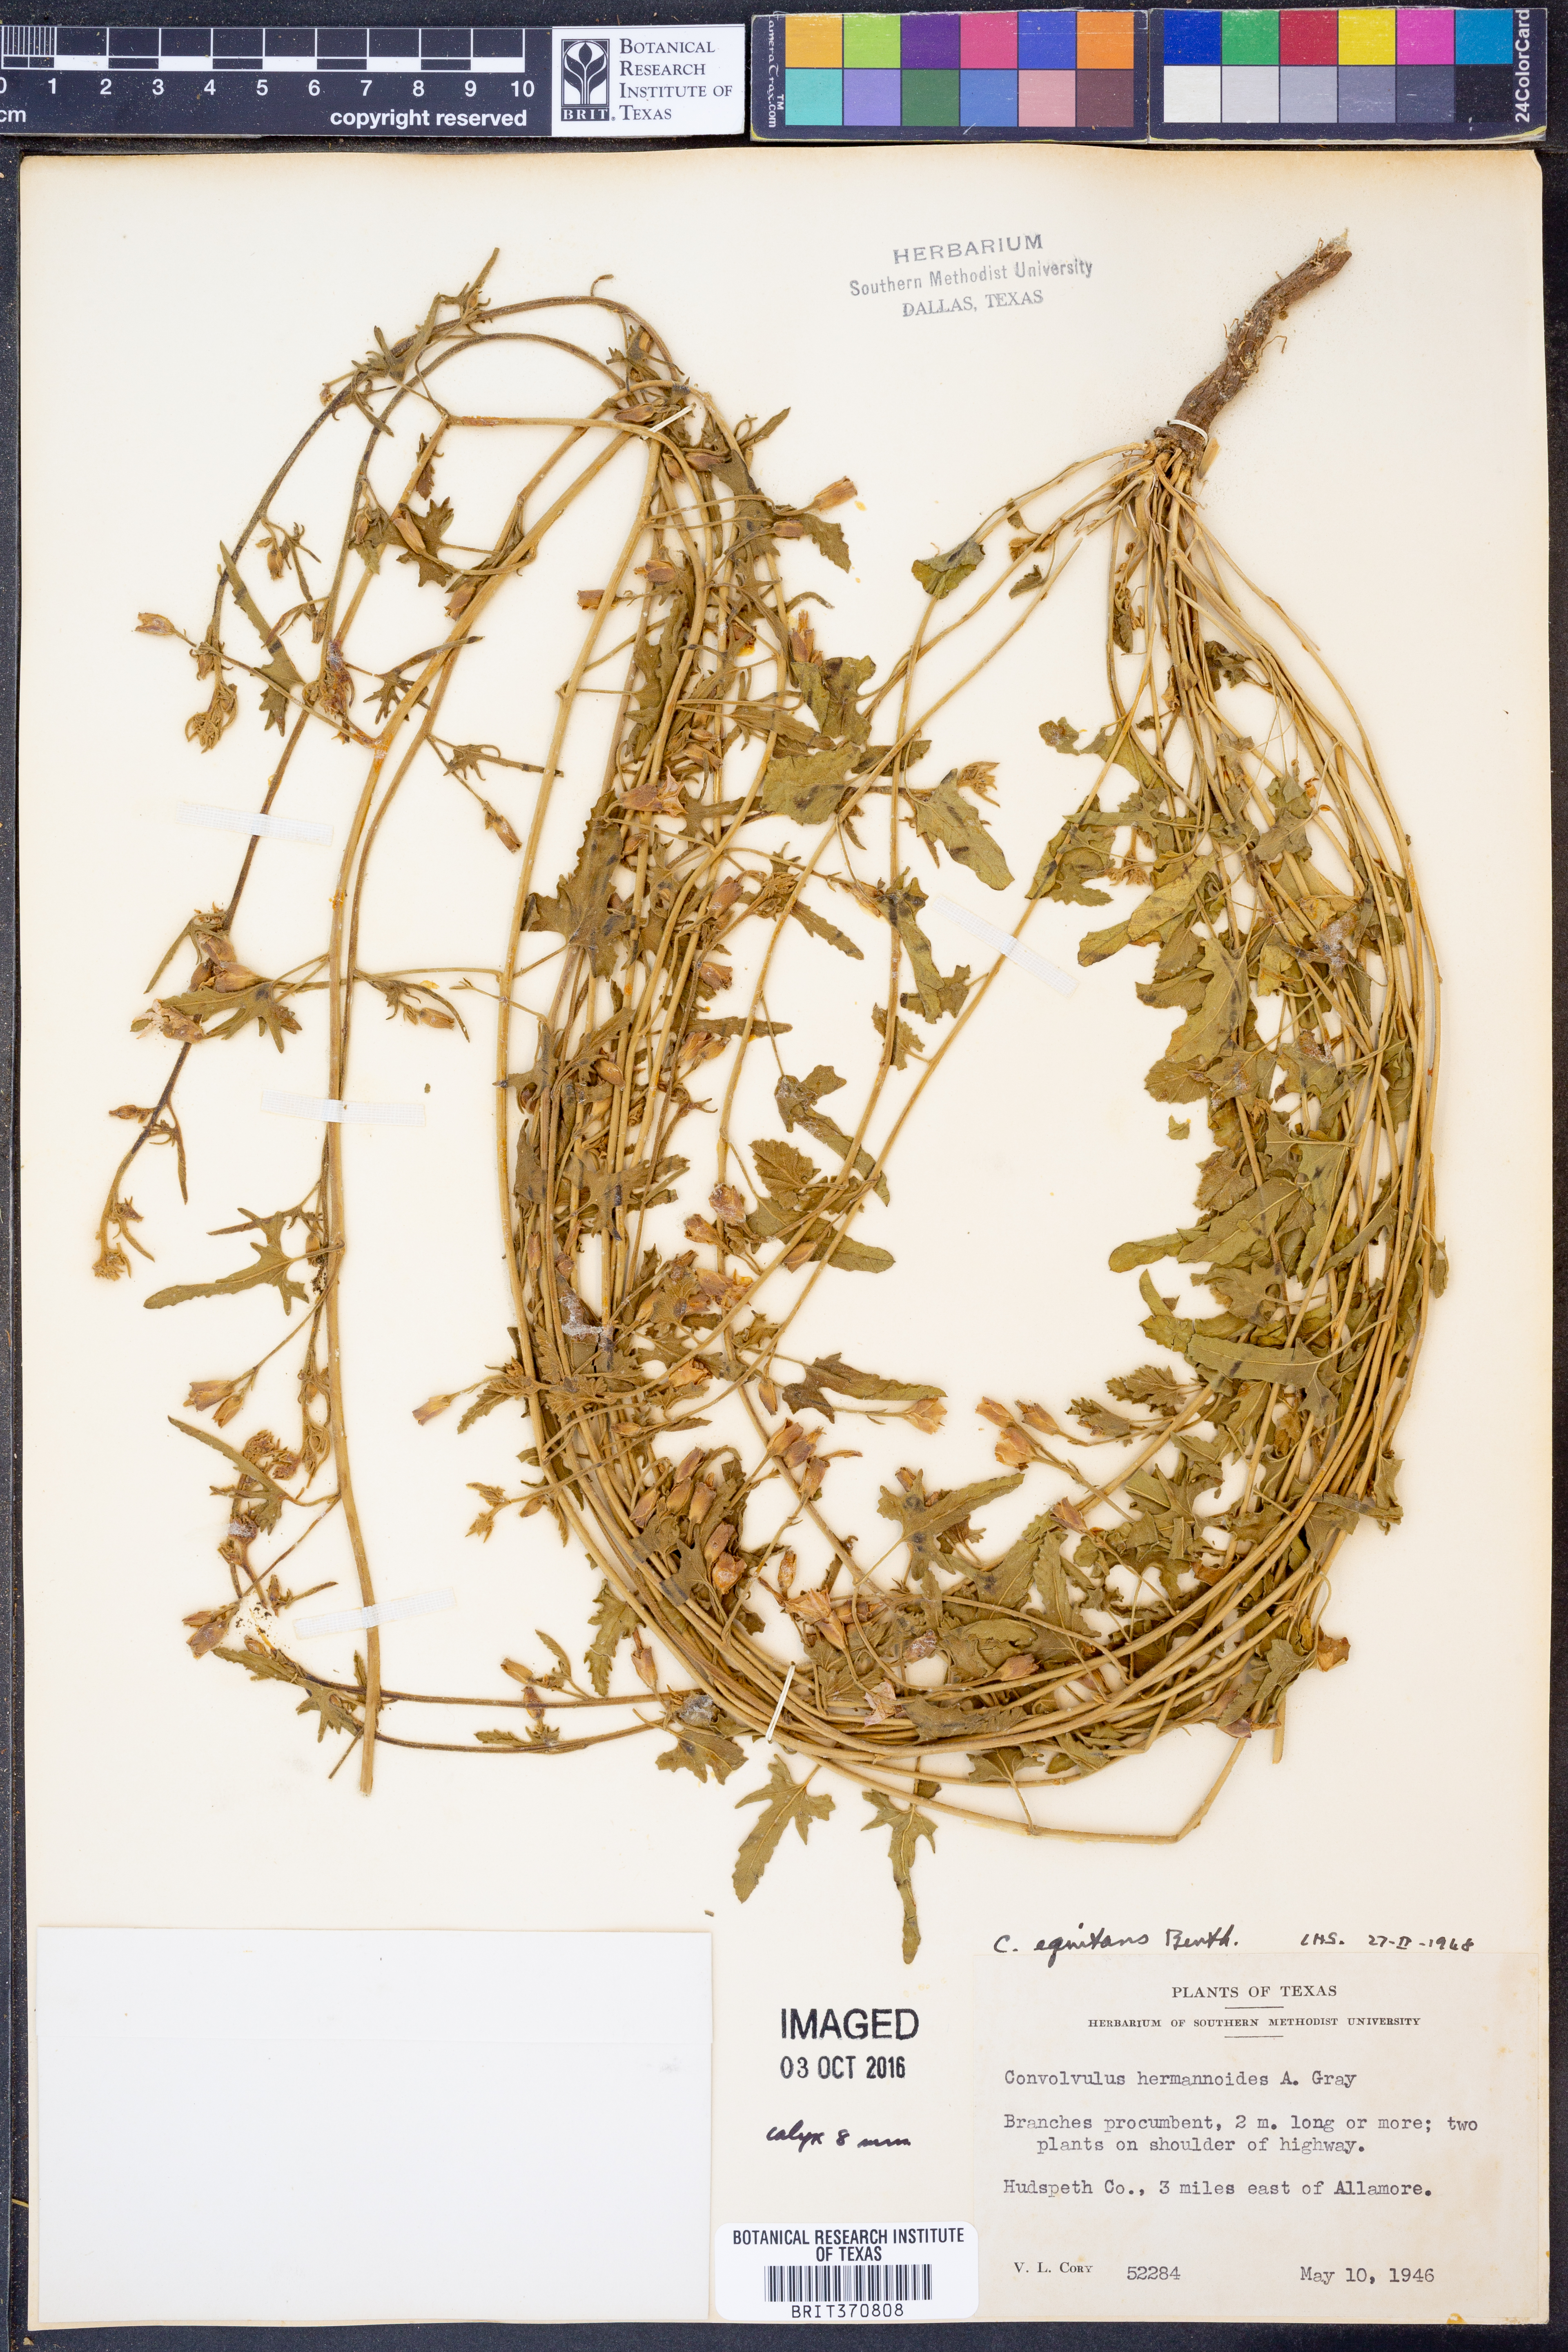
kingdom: Plantae
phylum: Tracheophyta
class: Magnoliopsida
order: Solanales
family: Convolvulaceae
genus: Convolvulus
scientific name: Convolvulus equitans
